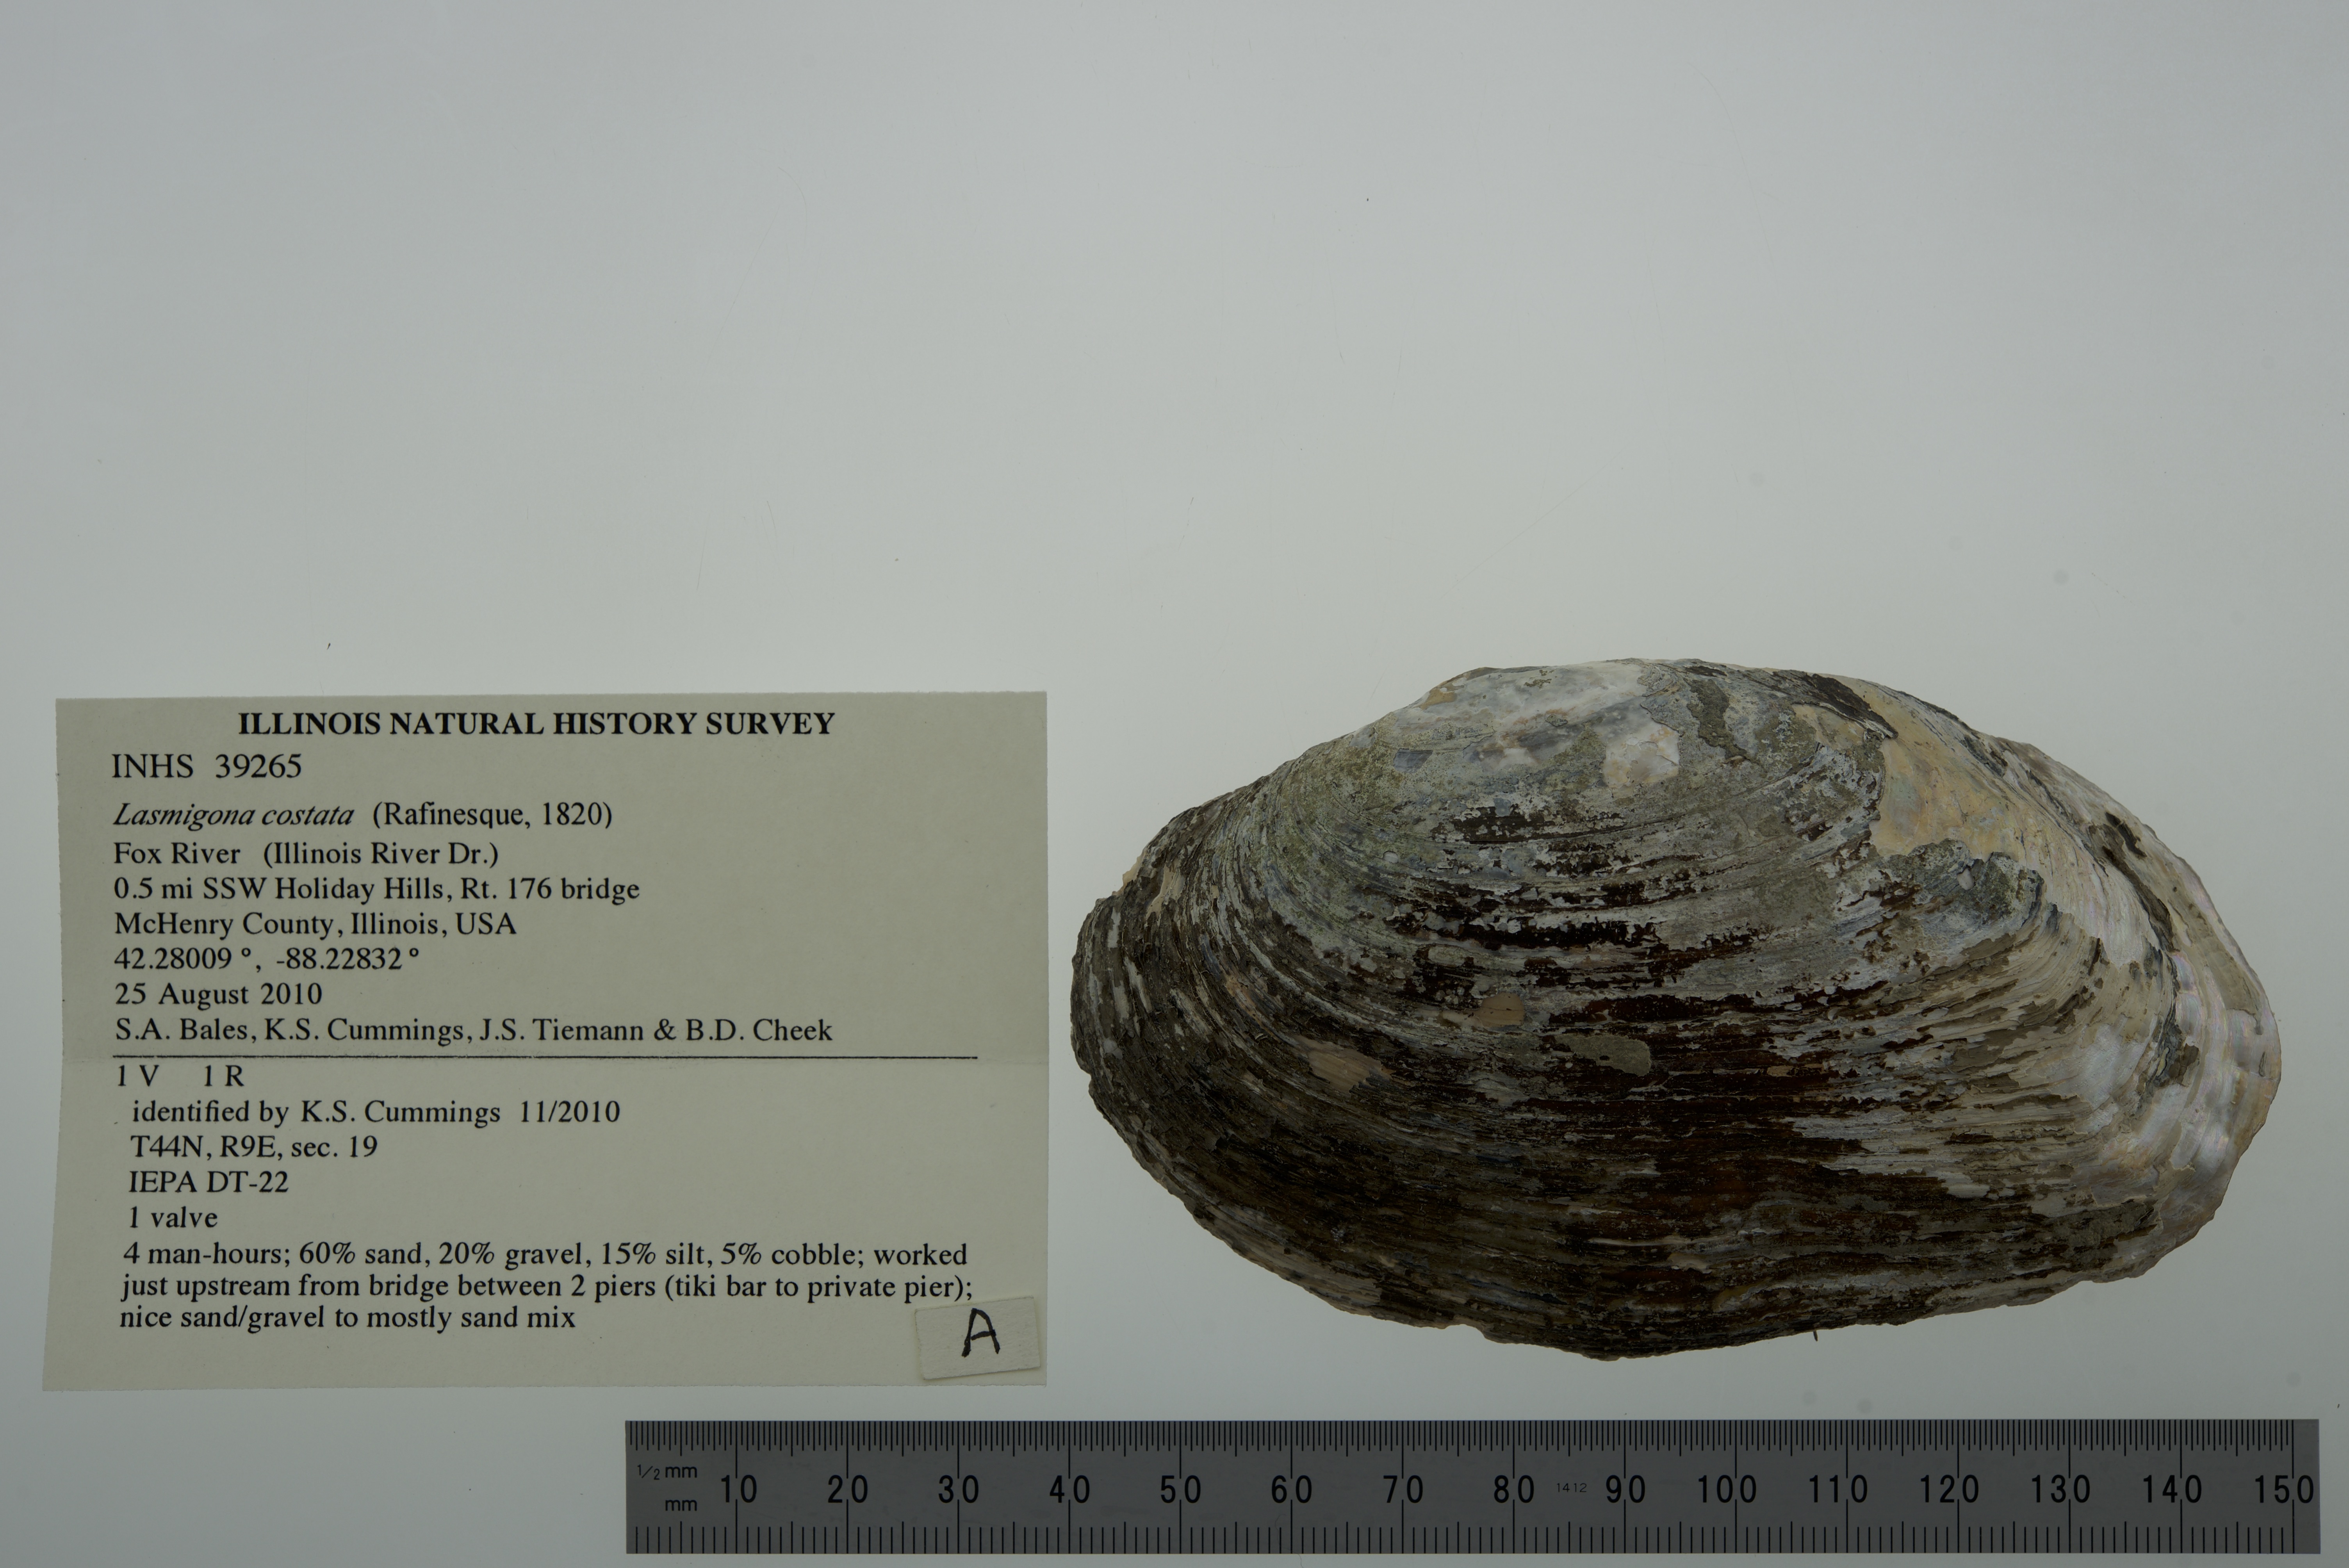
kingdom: Animalia
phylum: Mollusca
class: Bivalvia
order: Unionida
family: Unionidae
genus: Lasmigona
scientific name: Lasmigona costata
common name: Flutedshell
